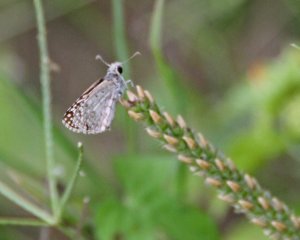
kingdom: Animalia
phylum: Arthropoda
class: Insecta
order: Lepidoptera
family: Hesperiidae
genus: Pyrgus
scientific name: Pyrgus oileus
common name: Desert Checkered-Skipper
